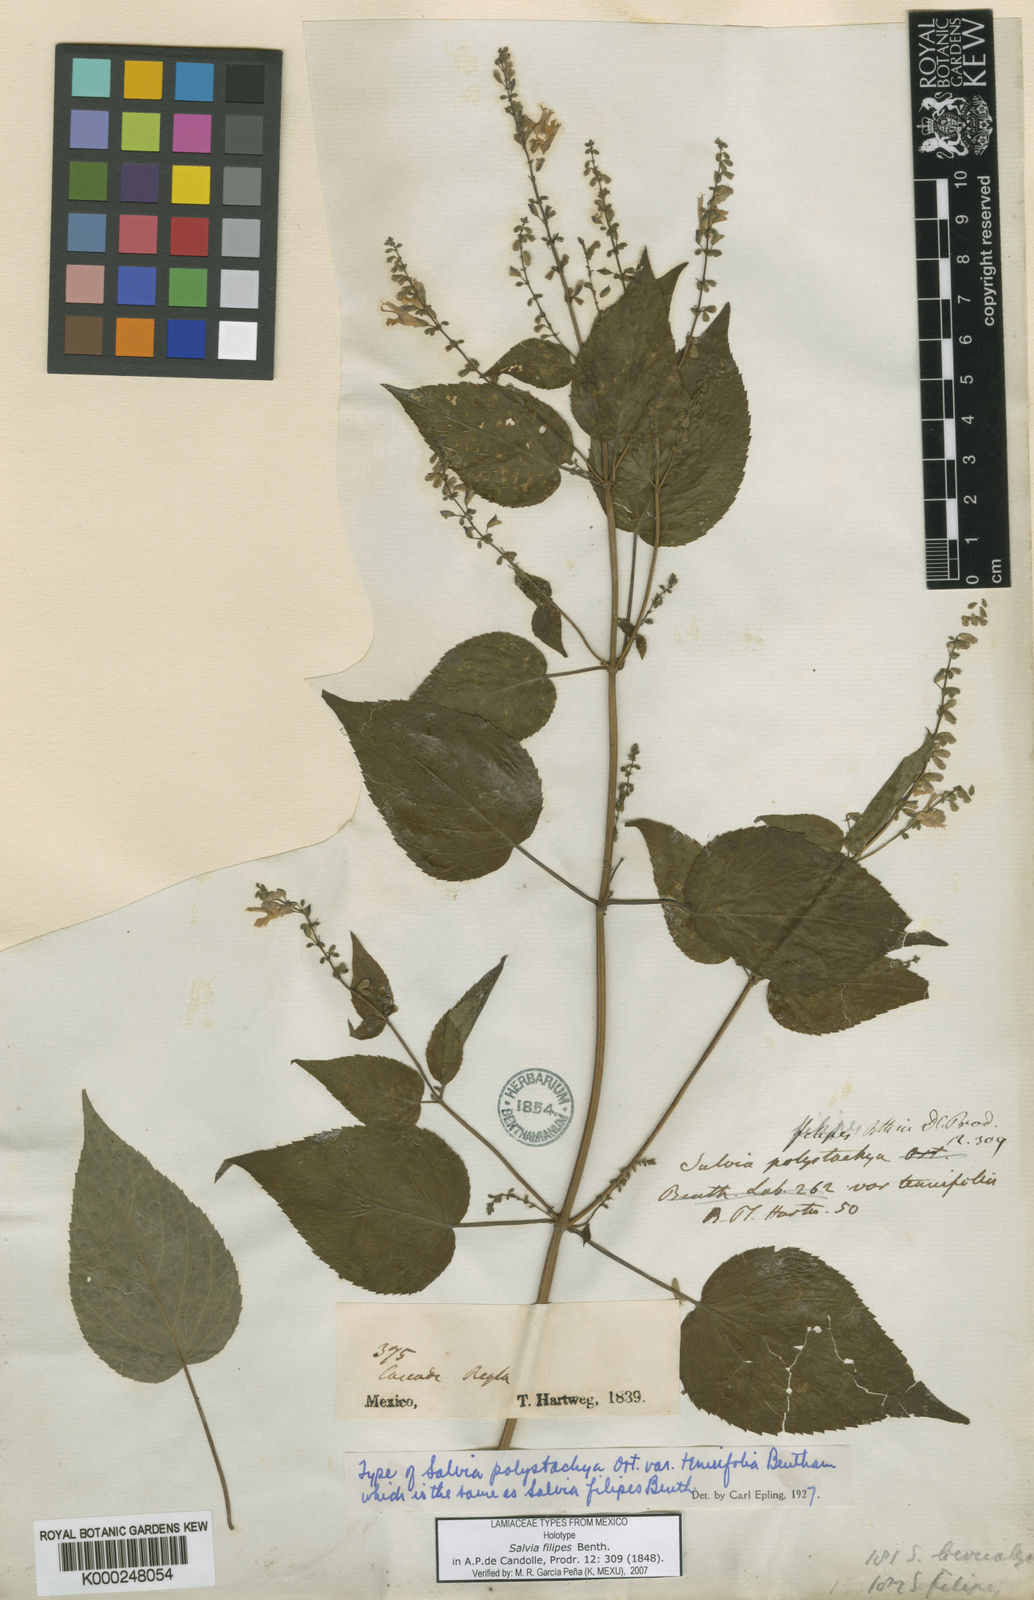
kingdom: Plantae
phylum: Tracheophyta
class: Magnoliopsida
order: Lamiales
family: Lamiaceae
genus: Salvia
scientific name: Salvia filipes
